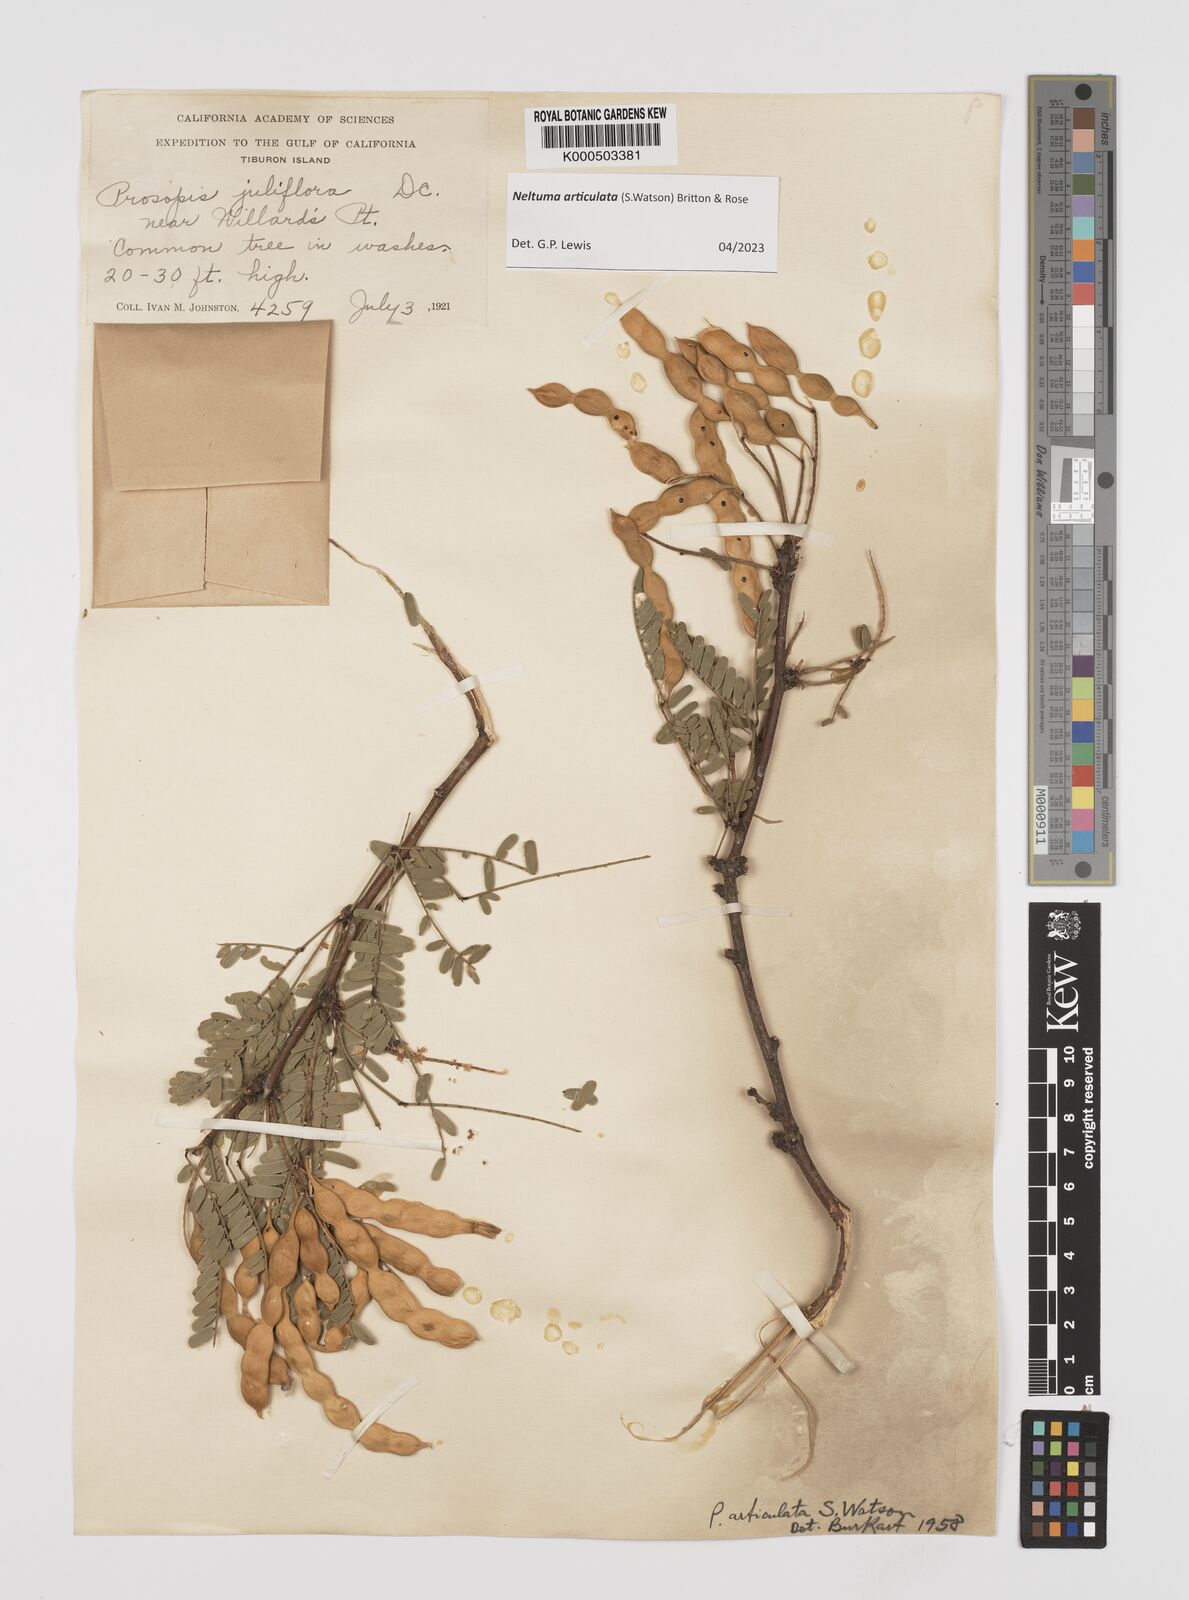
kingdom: Plantae
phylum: Tracheophyta
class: Magnoliopsida
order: Fabales
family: Fabaceae
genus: Prosopis
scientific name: Prosopis articulata
